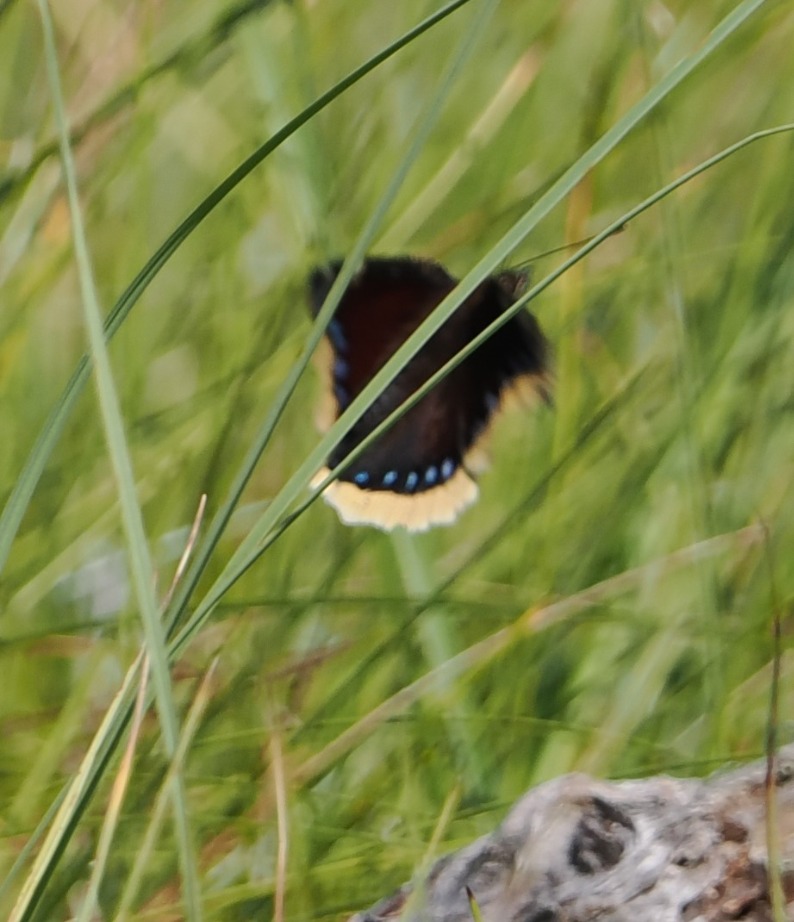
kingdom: Animalia
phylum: Arthropoda
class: Insecta
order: Lepidoptera
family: Nymphalidae
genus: Nymphalis
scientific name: Nymphalis antiopa
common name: Sørgekåbe
